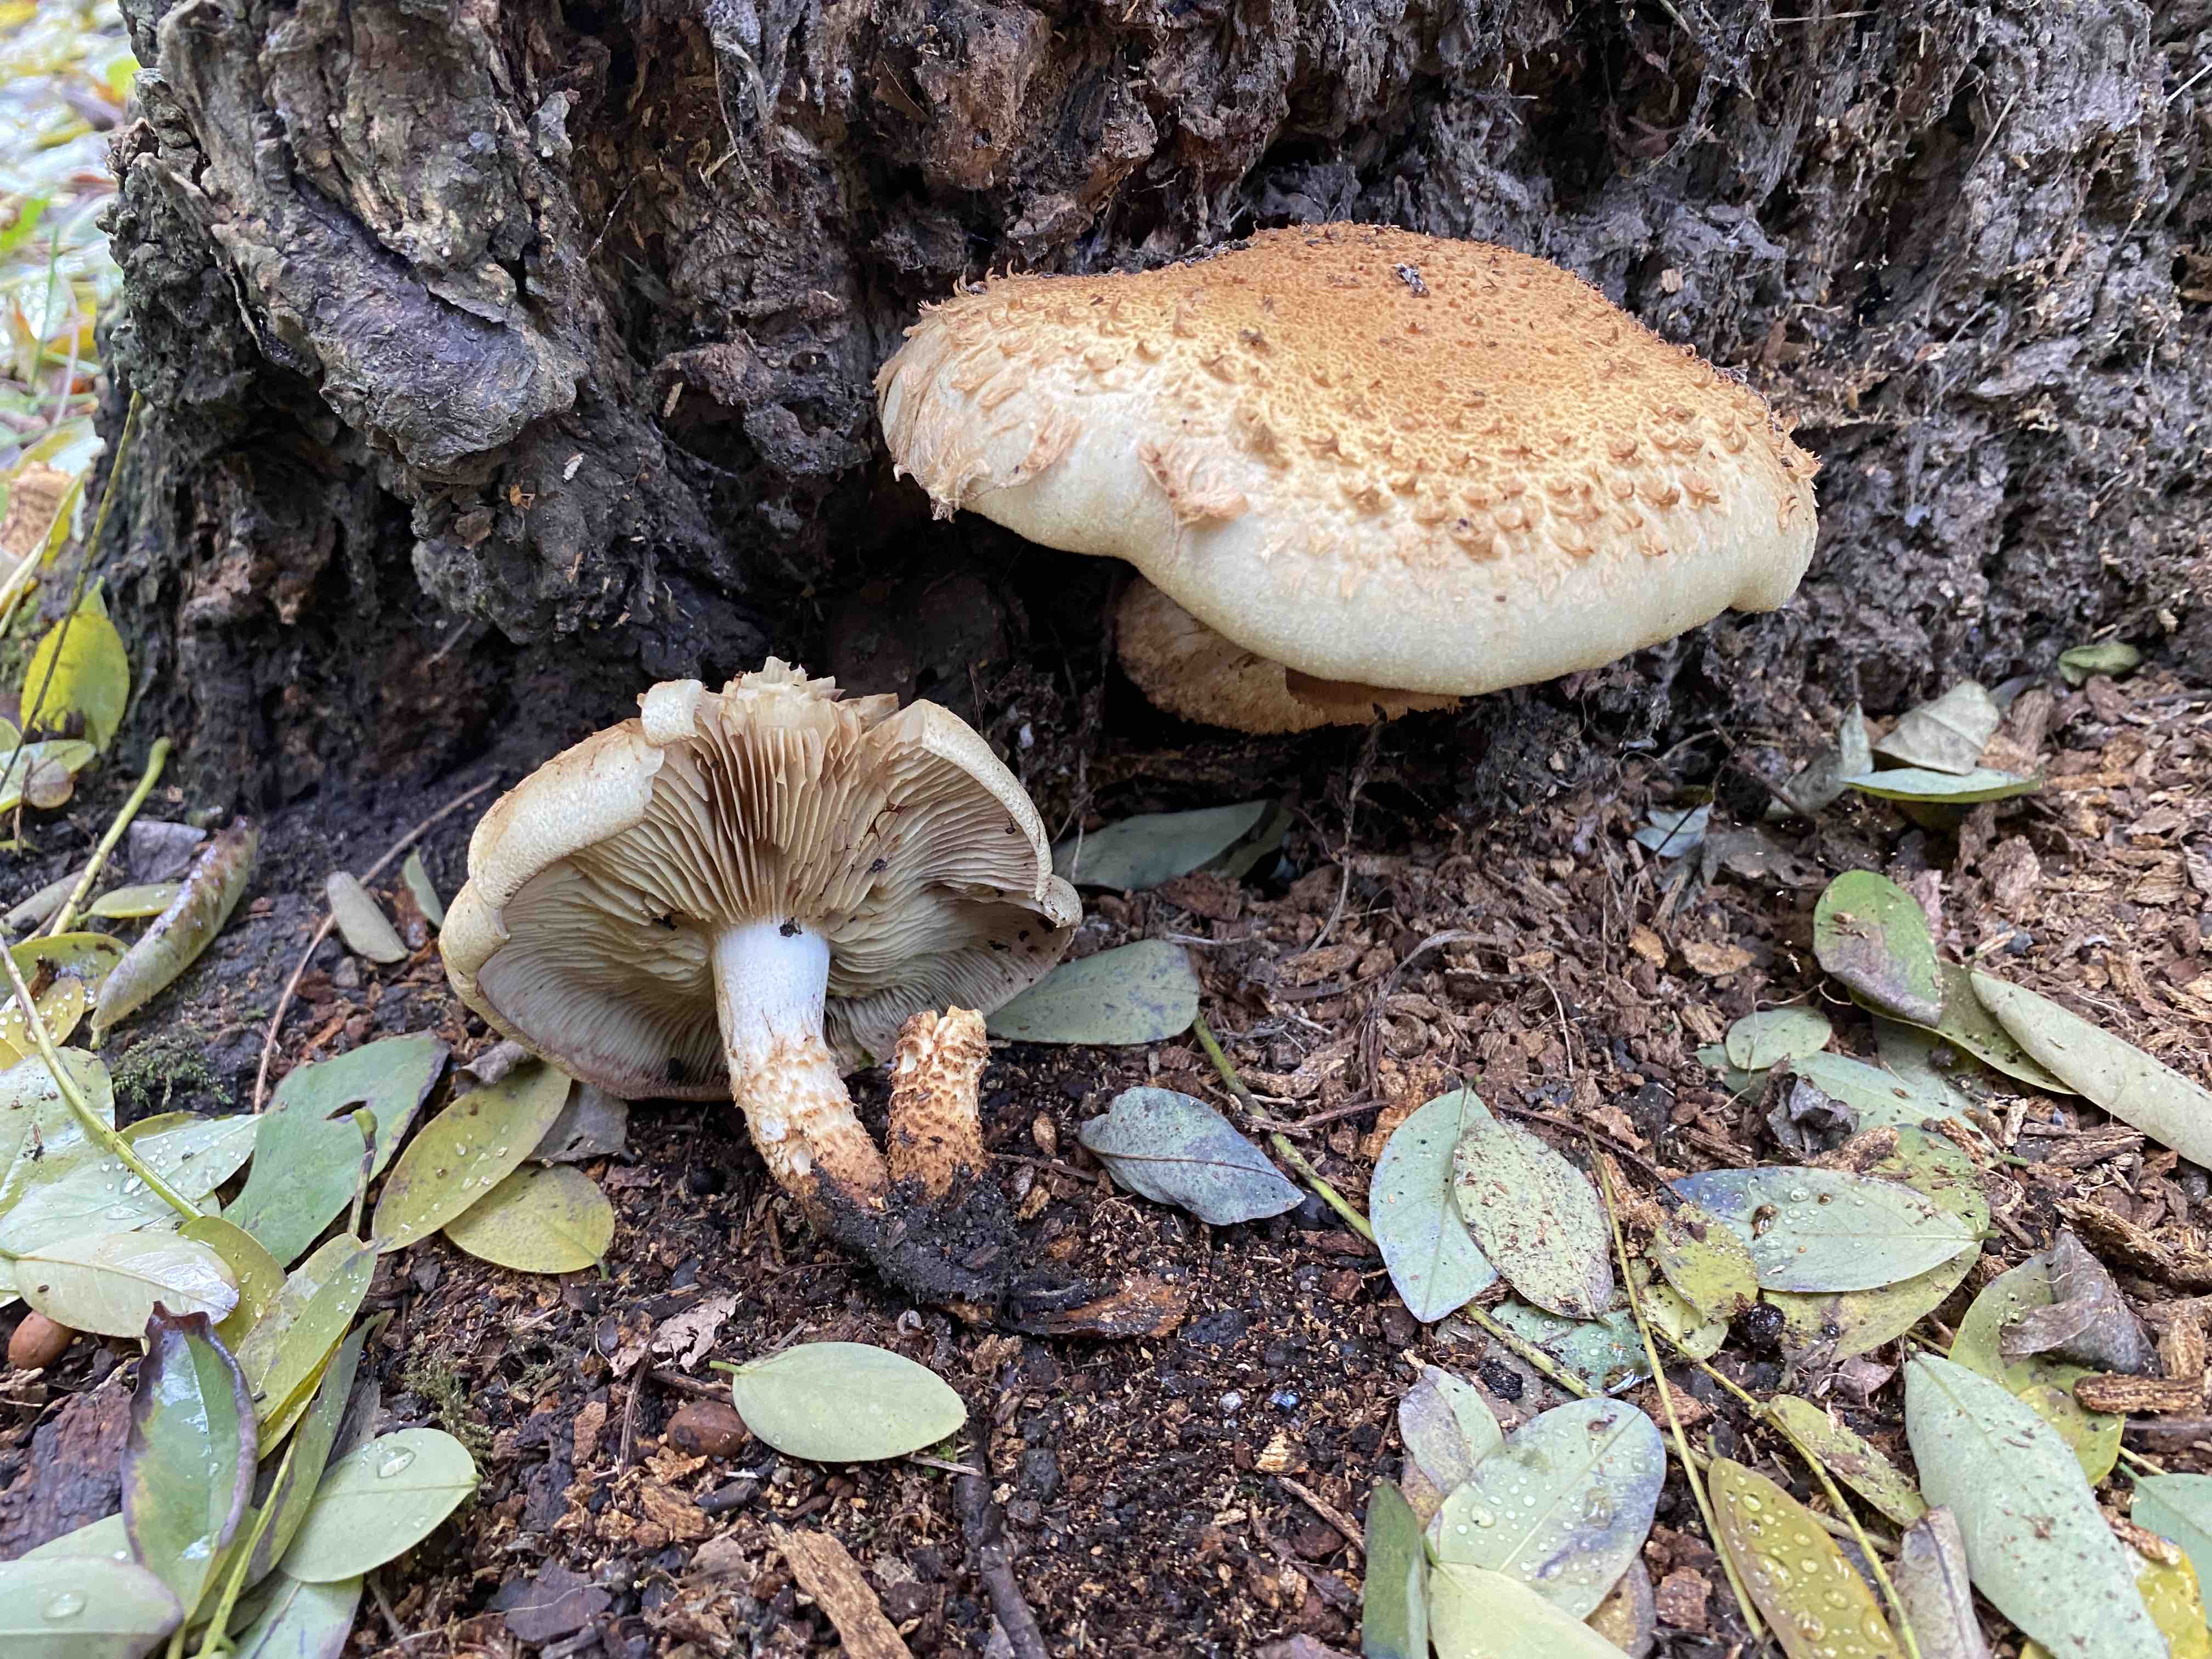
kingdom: Fungi
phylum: Basidiomycota
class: Agaricomycetes
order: Agaricales
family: Strophariaceae
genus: Pholiota
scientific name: Pholiota squarrosa
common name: krumskællet skælhat
